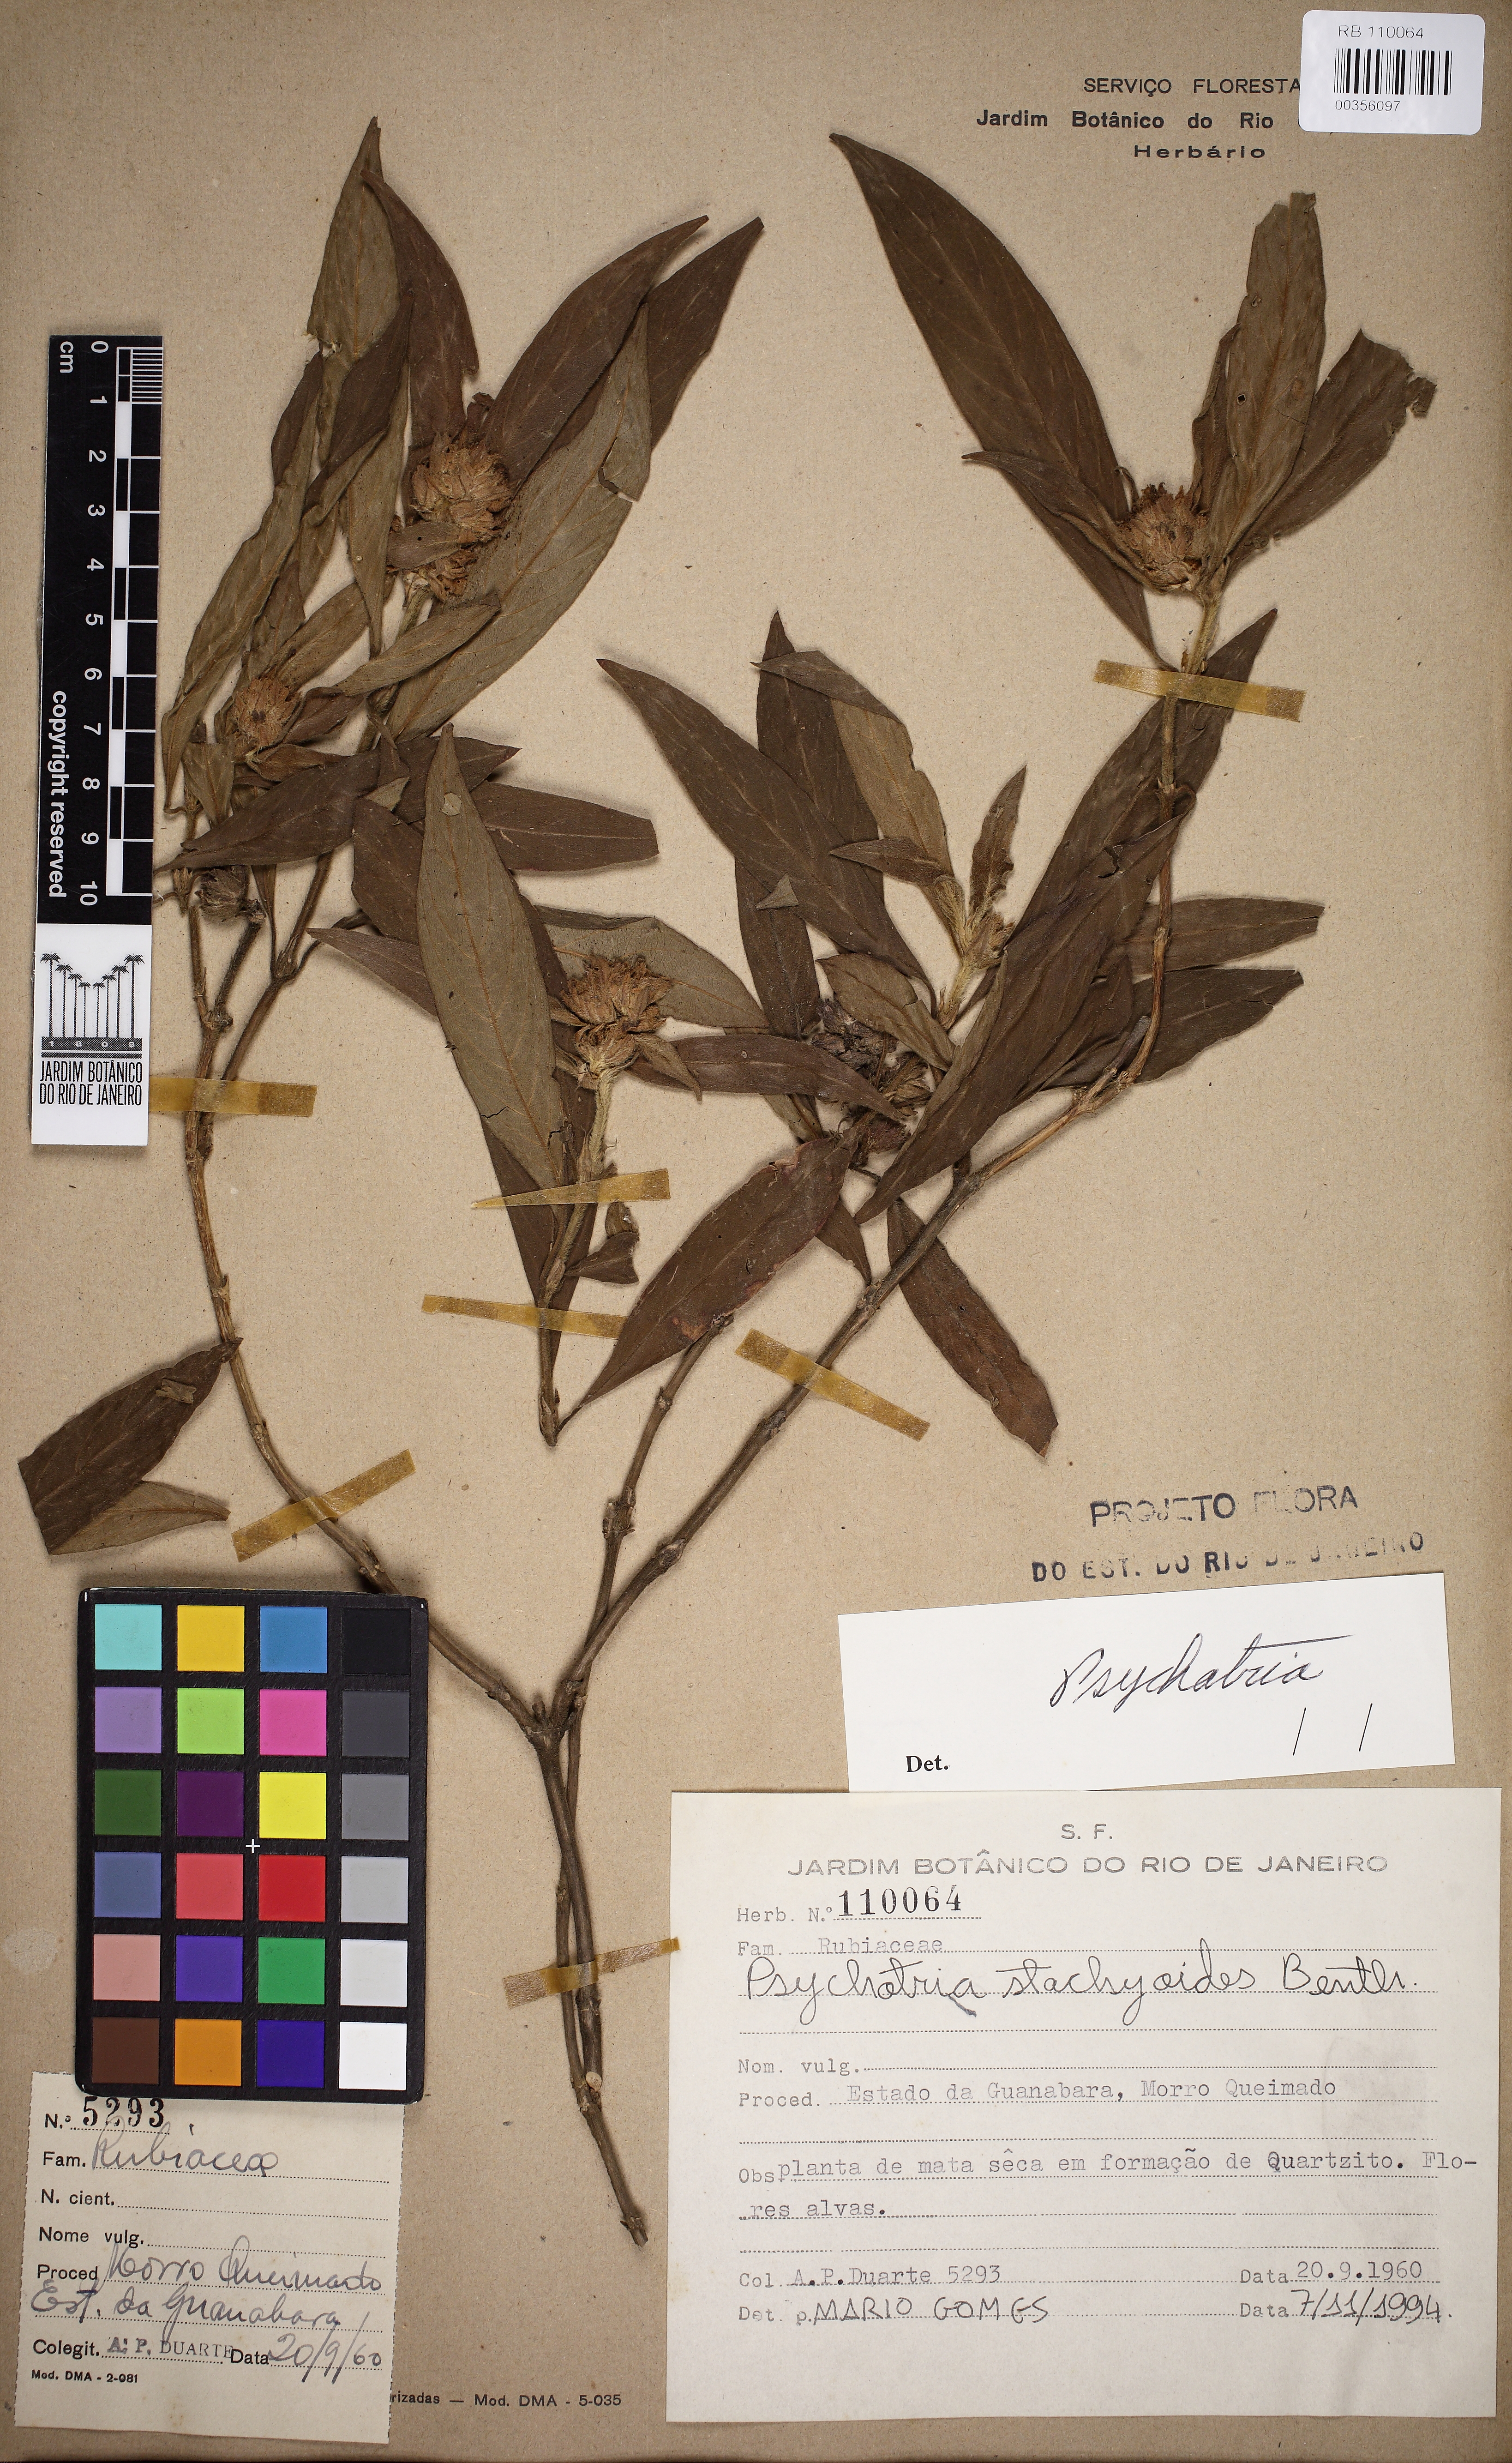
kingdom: Plantae
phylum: Tracheophyta
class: Magnoliopsida
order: Gentianales
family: Rubiaceae
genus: Psychotria
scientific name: Psychotria stachyoides
